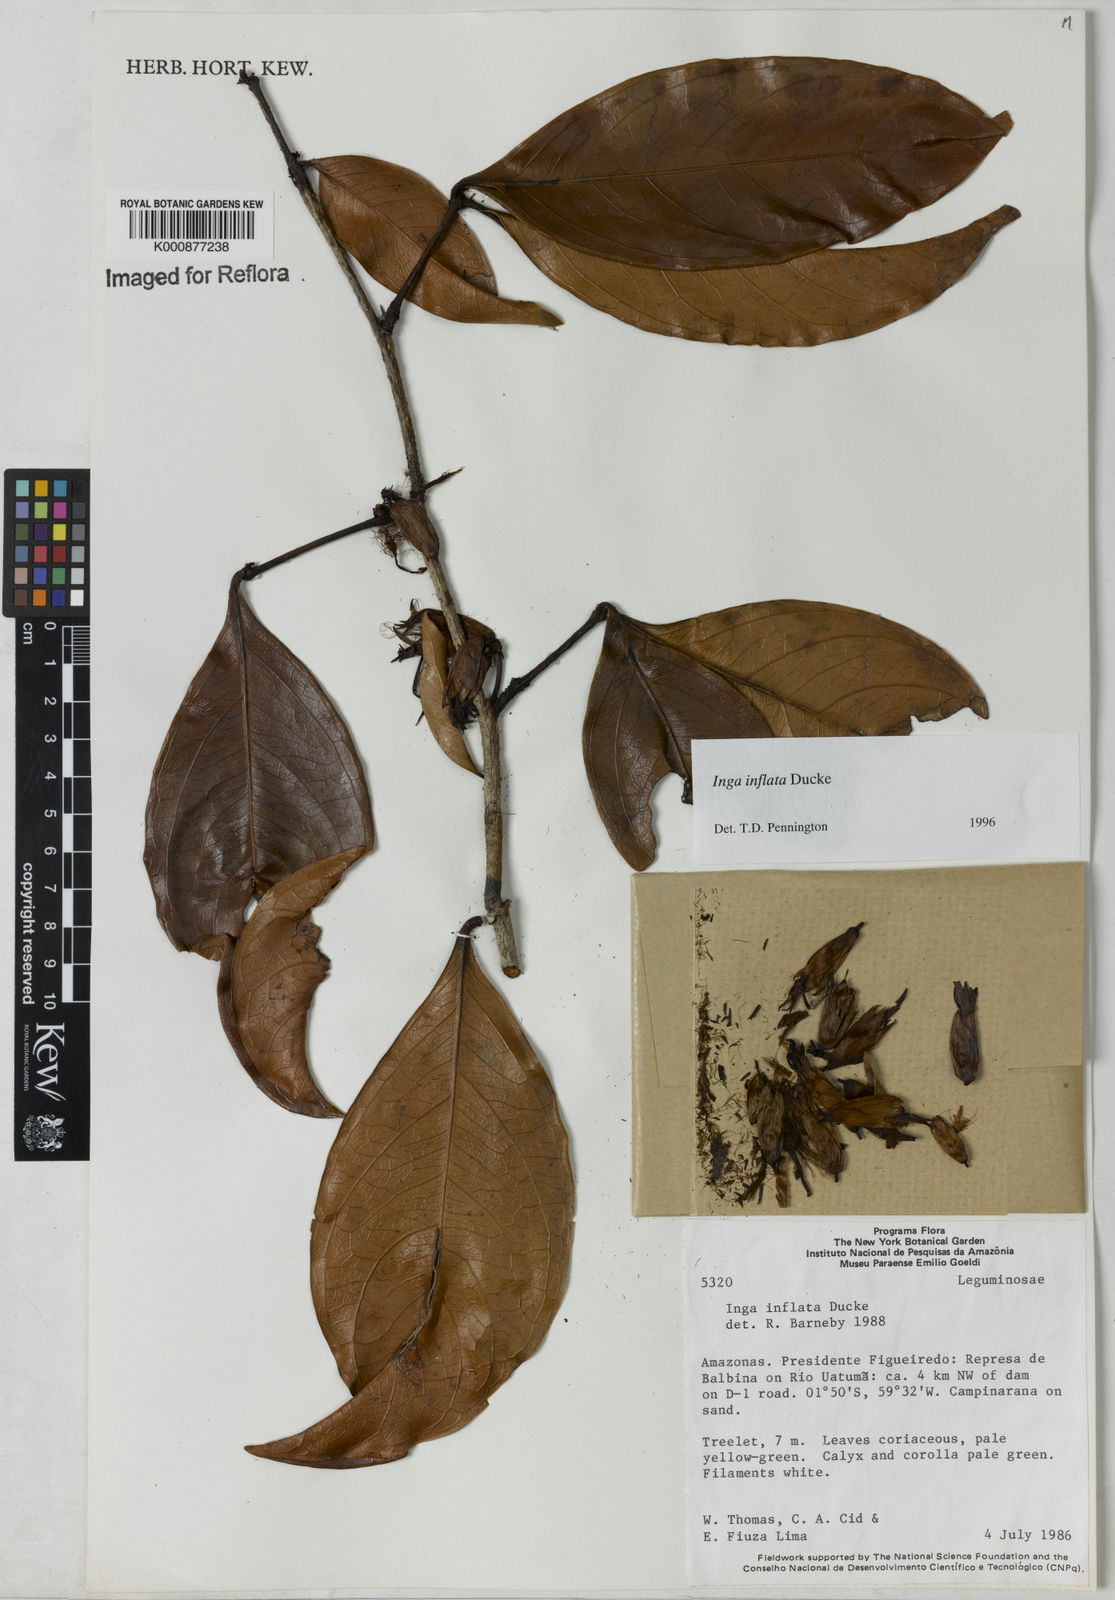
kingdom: Plantae
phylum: Tracheophyta
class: Magnoliopsida
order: Fabales
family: Fabaceae
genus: Inga
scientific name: Inga inflata
